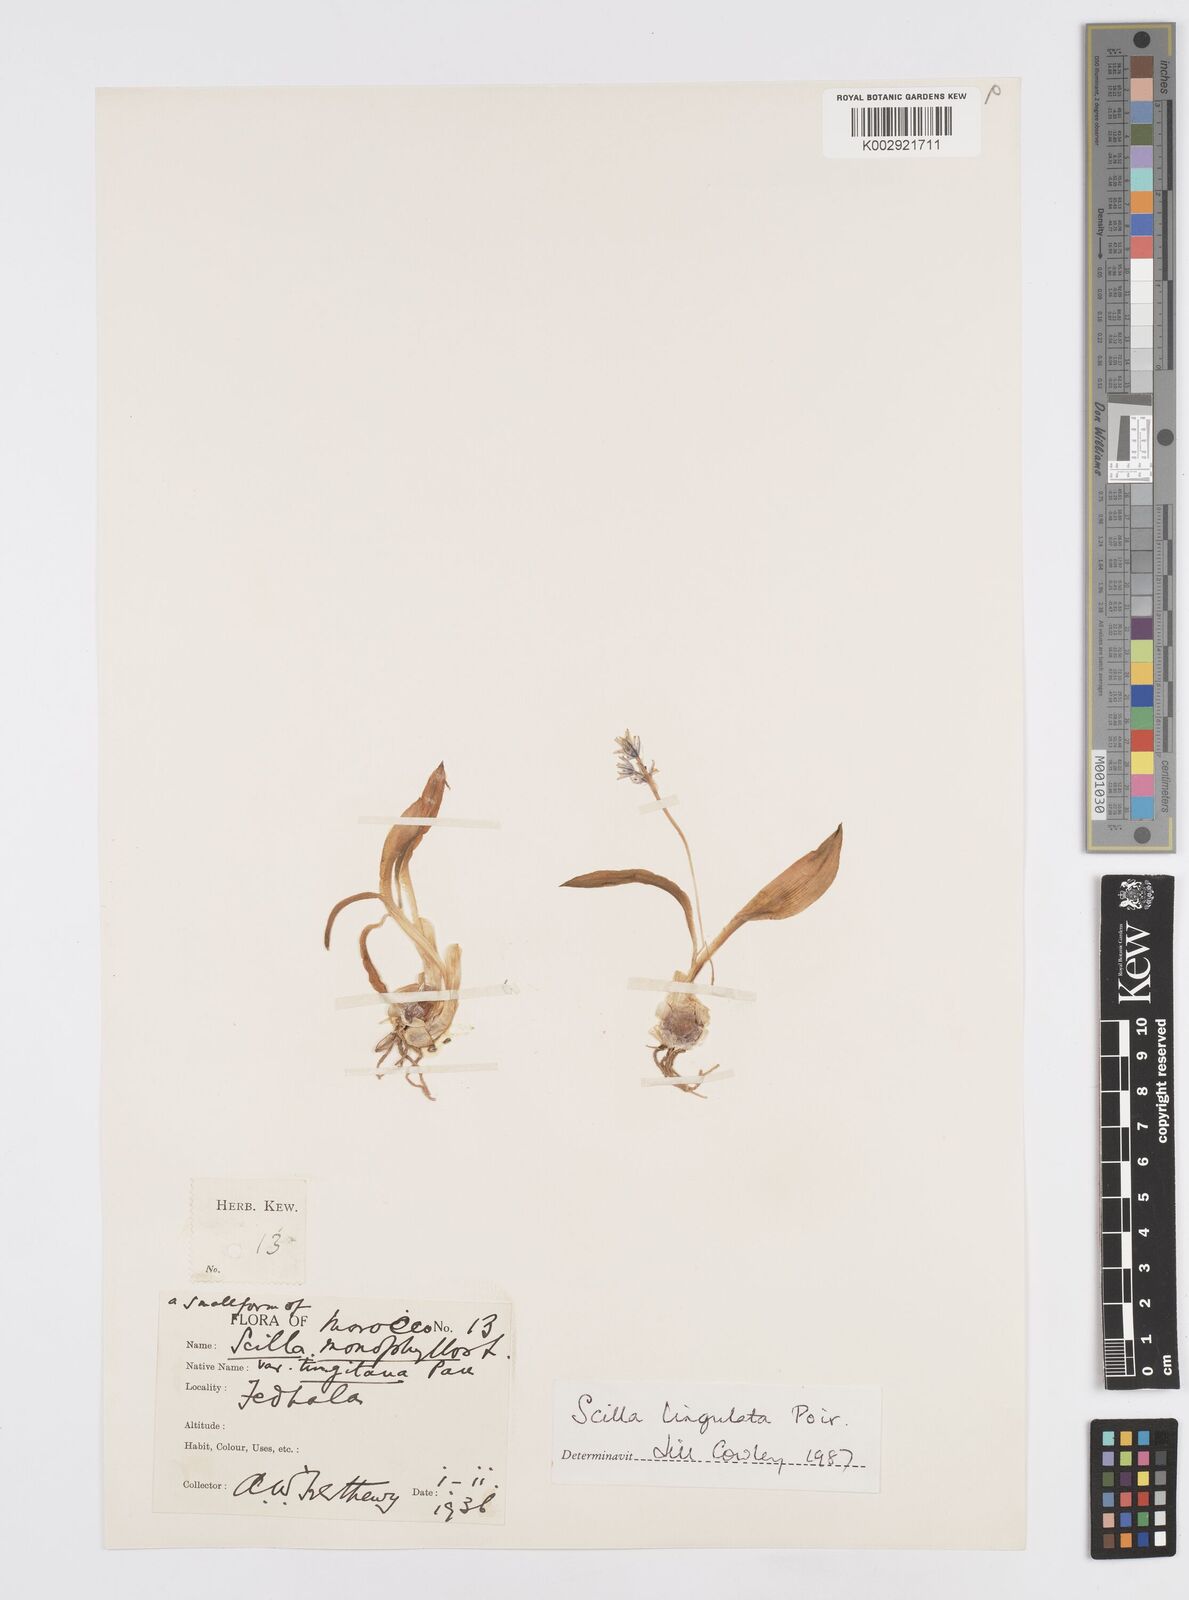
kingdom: Plantae
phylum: Tracheophyta
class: Liliopsida
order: Asparagales
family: Asparagaceae
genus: Hyacinthoides
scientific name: Hyacinthoides lingulata
